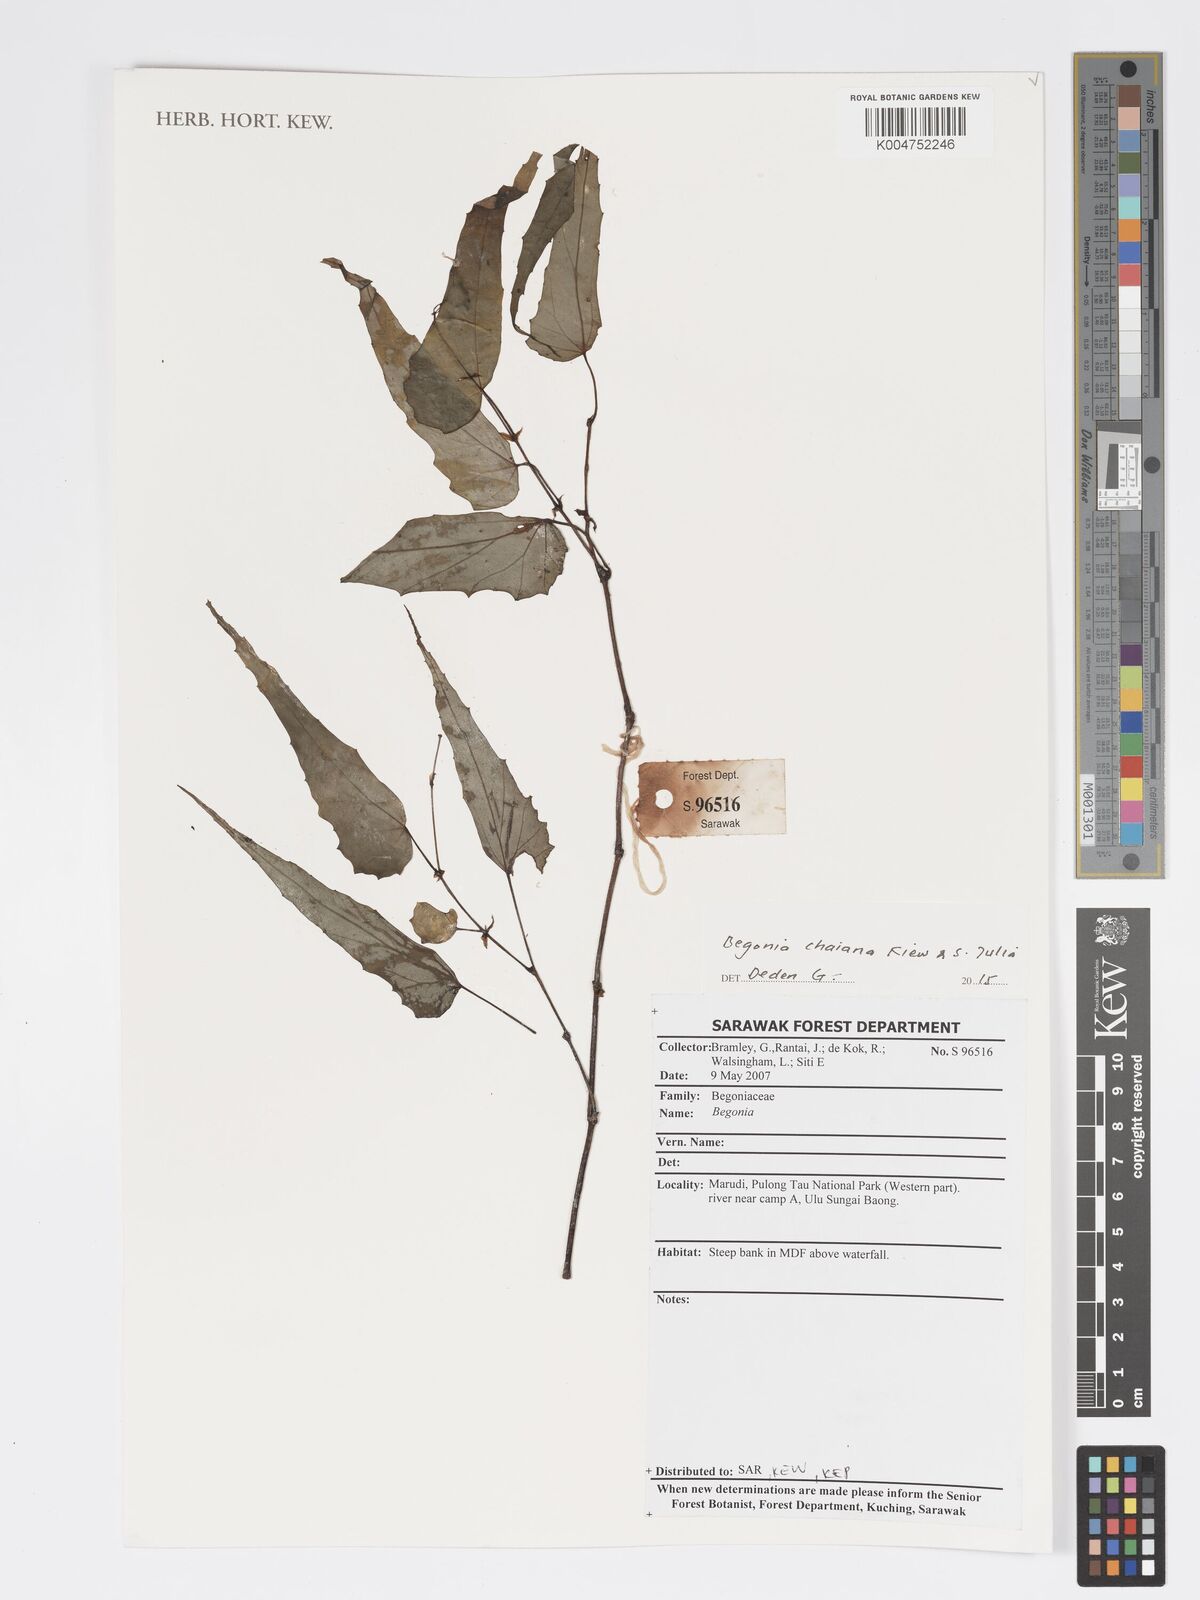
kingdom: Plantae
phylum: Tracheophyta
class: Magnoliopsida
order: Cucurbitales
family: Begoniaceae
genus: Begonia
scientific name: Begonia chaiana
